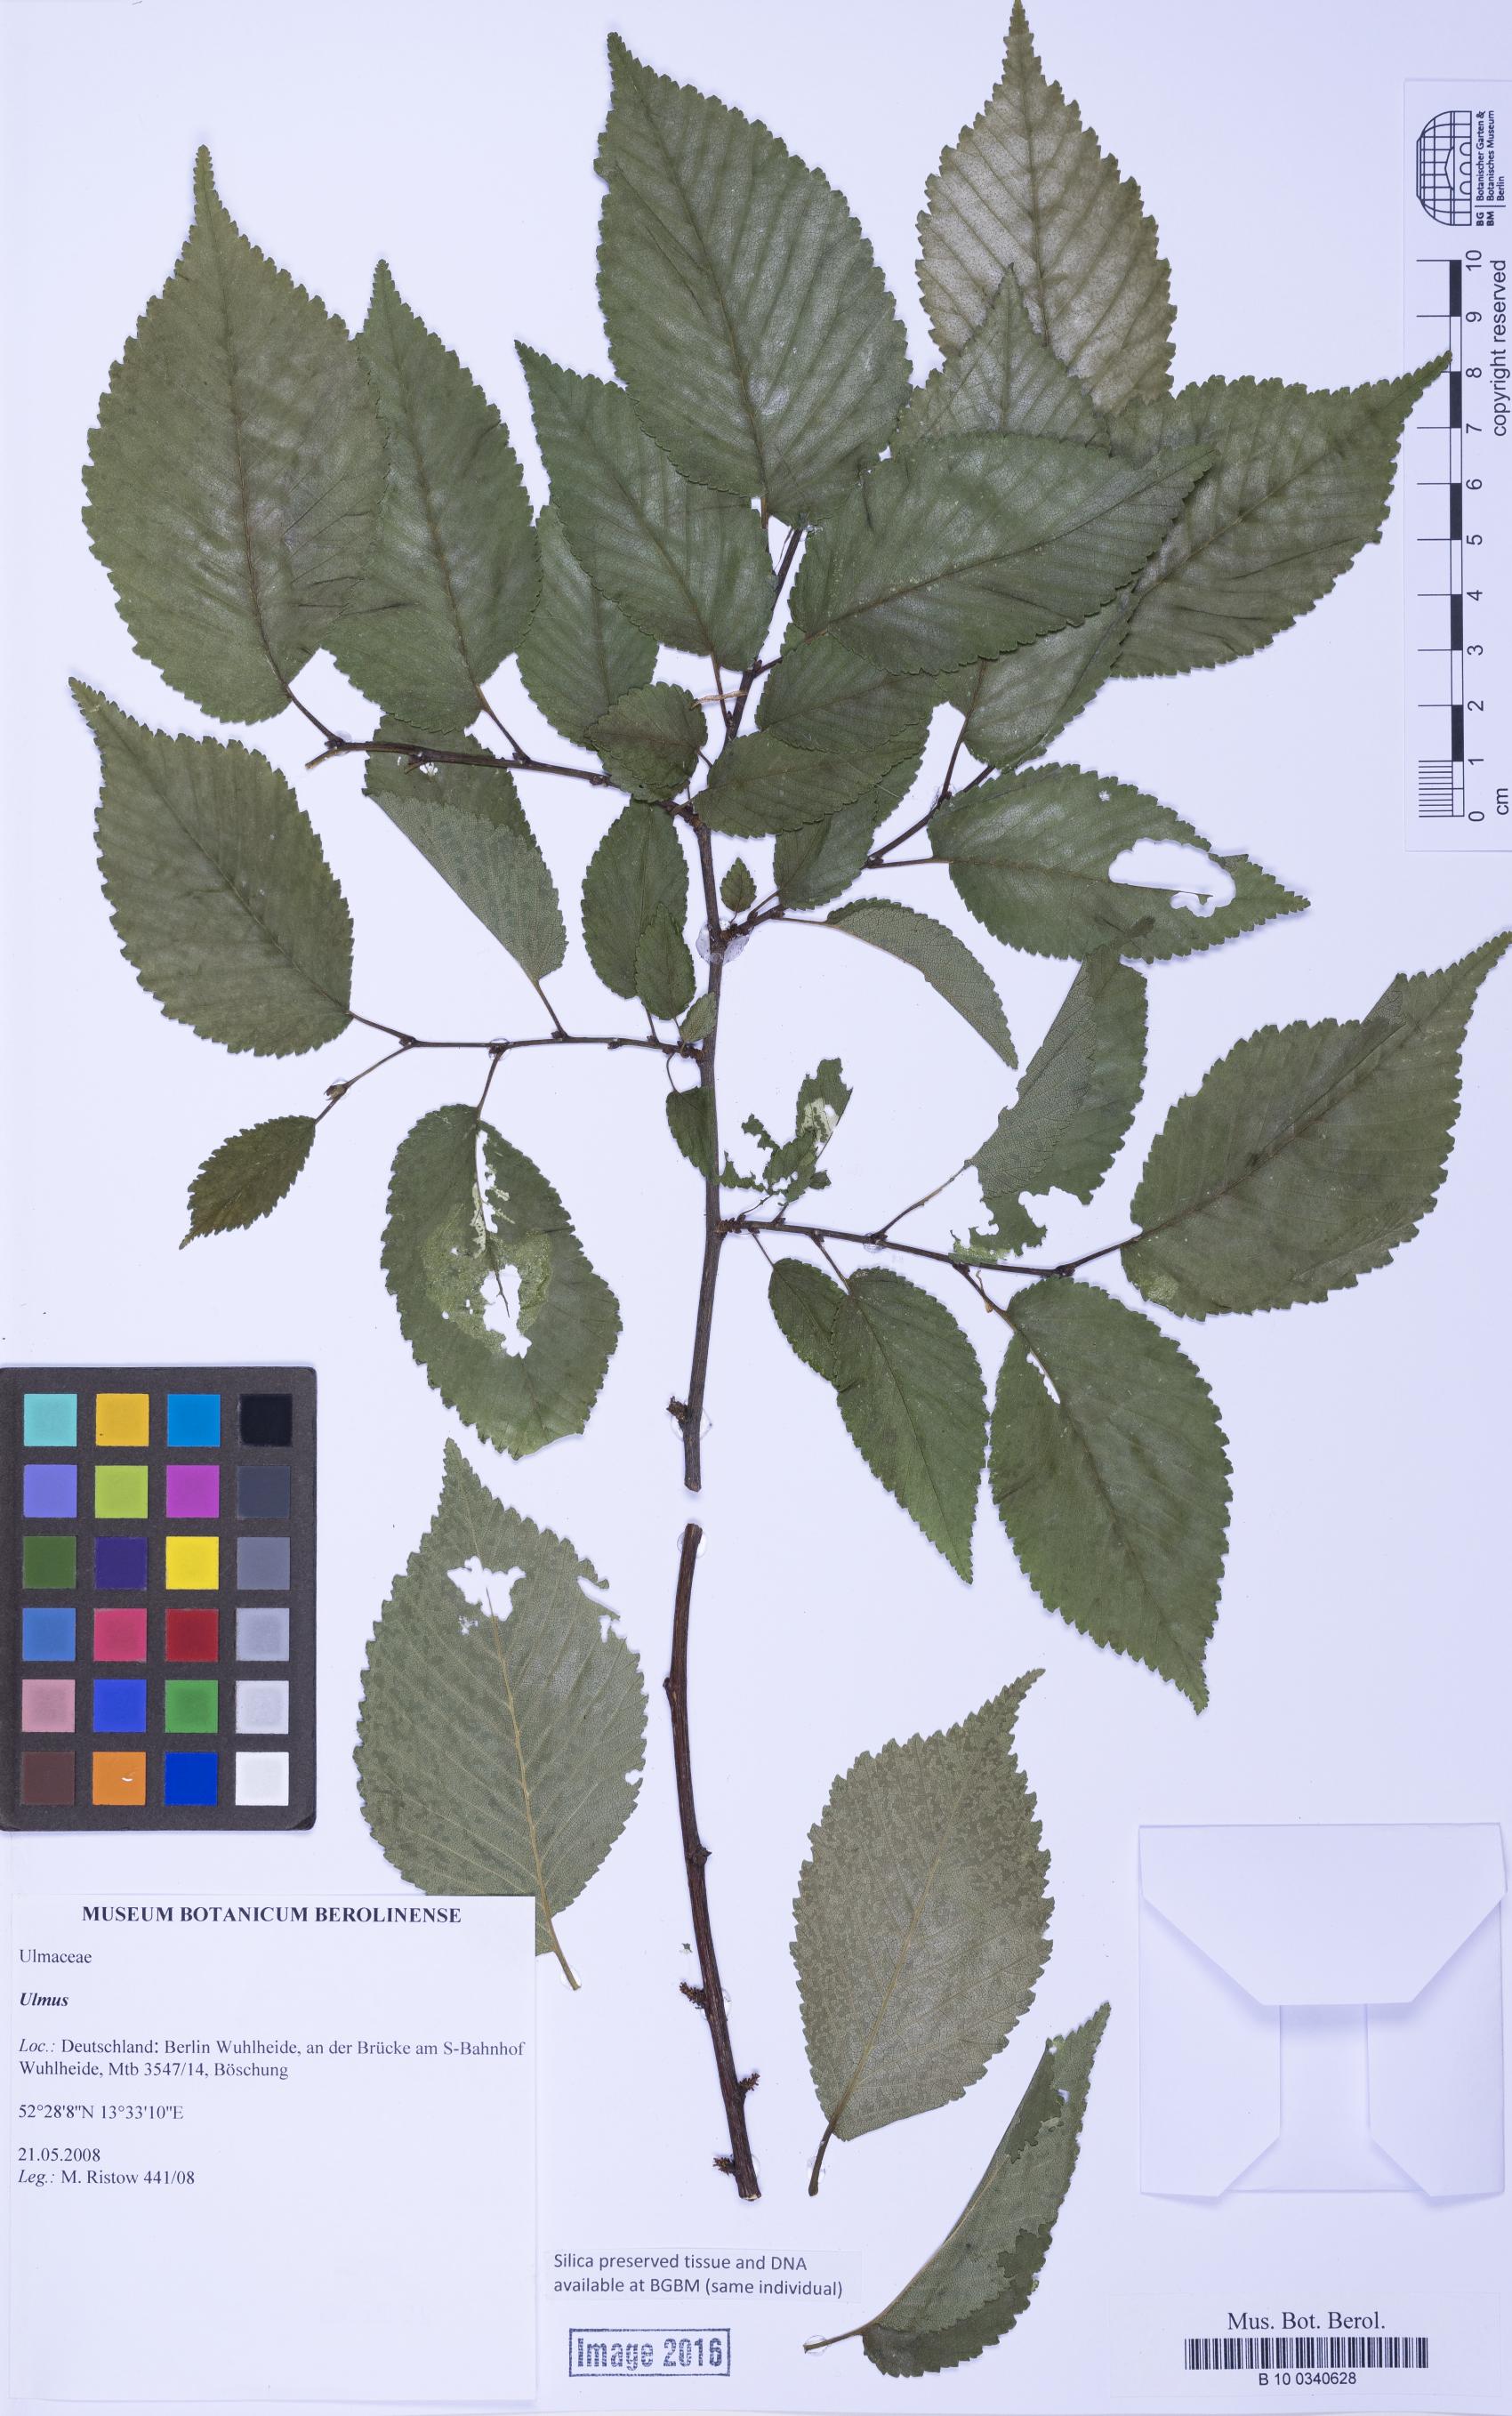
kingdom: Plantae
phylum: Tracheophyta
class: Magnoliopsida
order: Rosales
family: Ulmaceae
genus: Ulmus
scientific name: Ulmus
